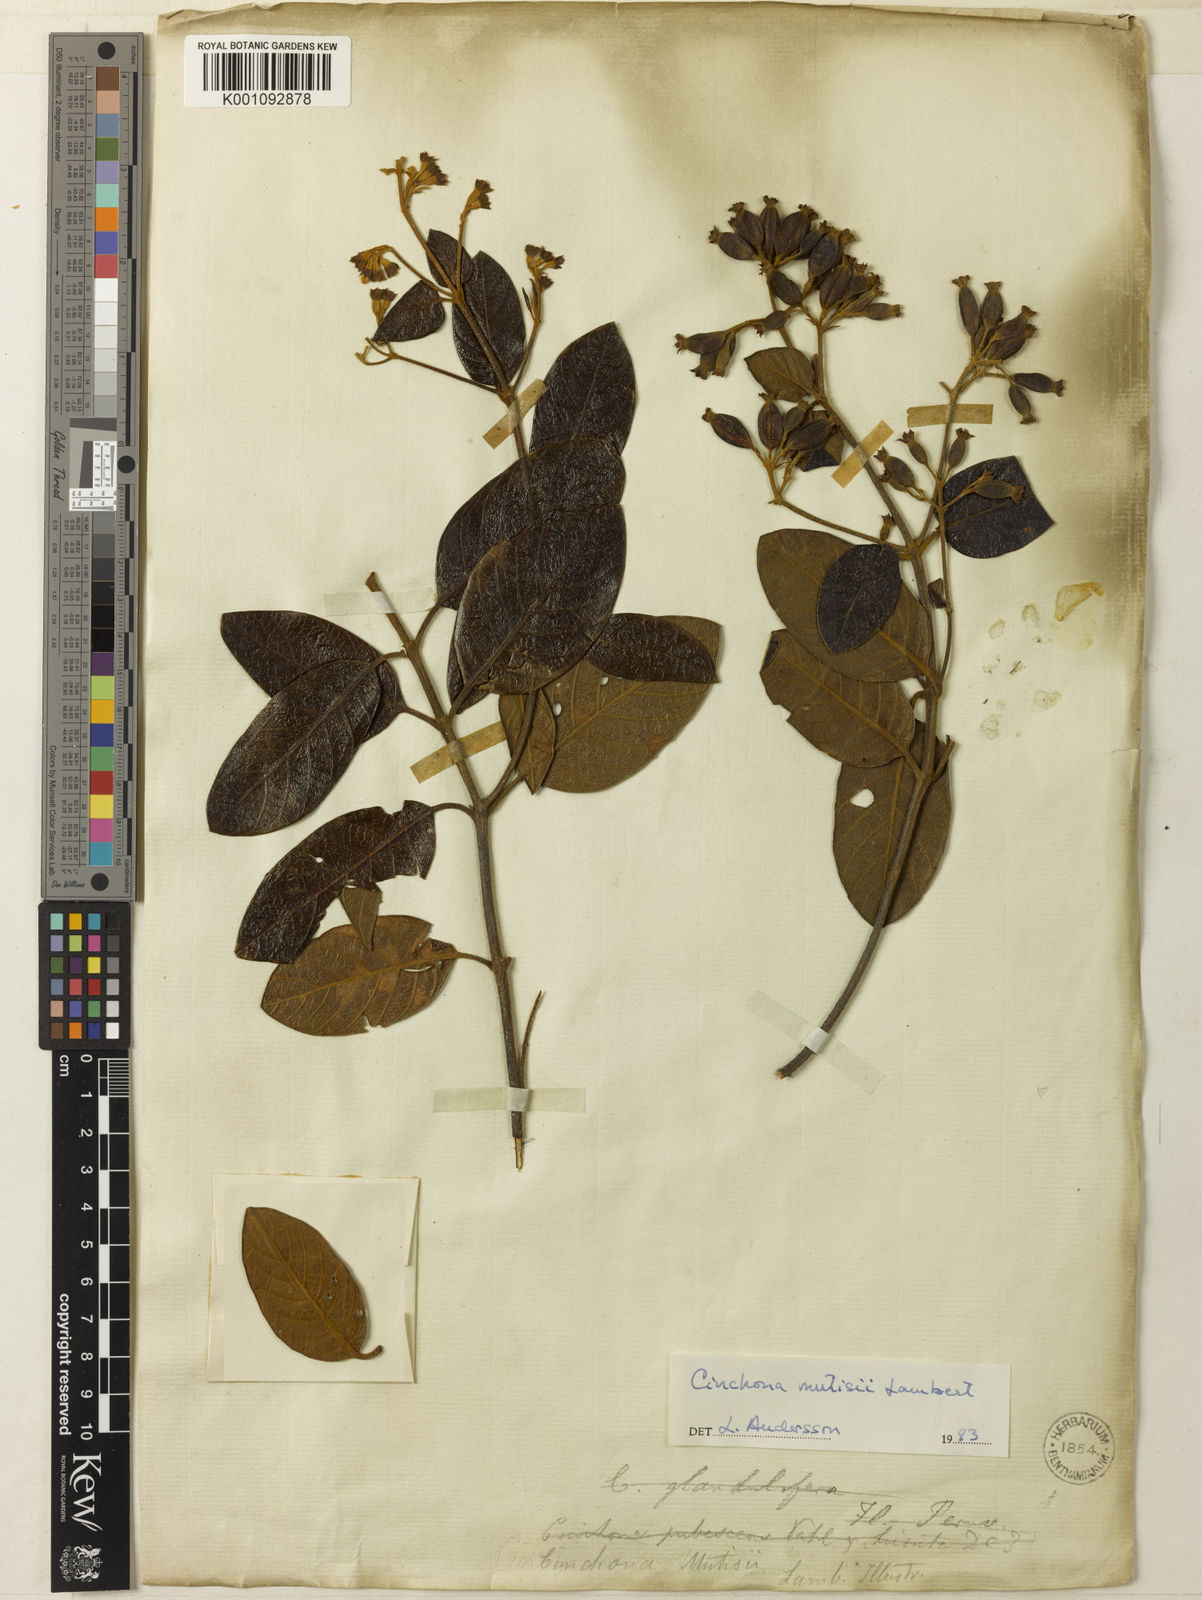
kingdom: Plantae
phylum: Tracheophyta
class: Magnoliopsida
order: Gentianales
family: Rubiaceae
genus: Cinchona
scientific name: Cinchona mutisii
